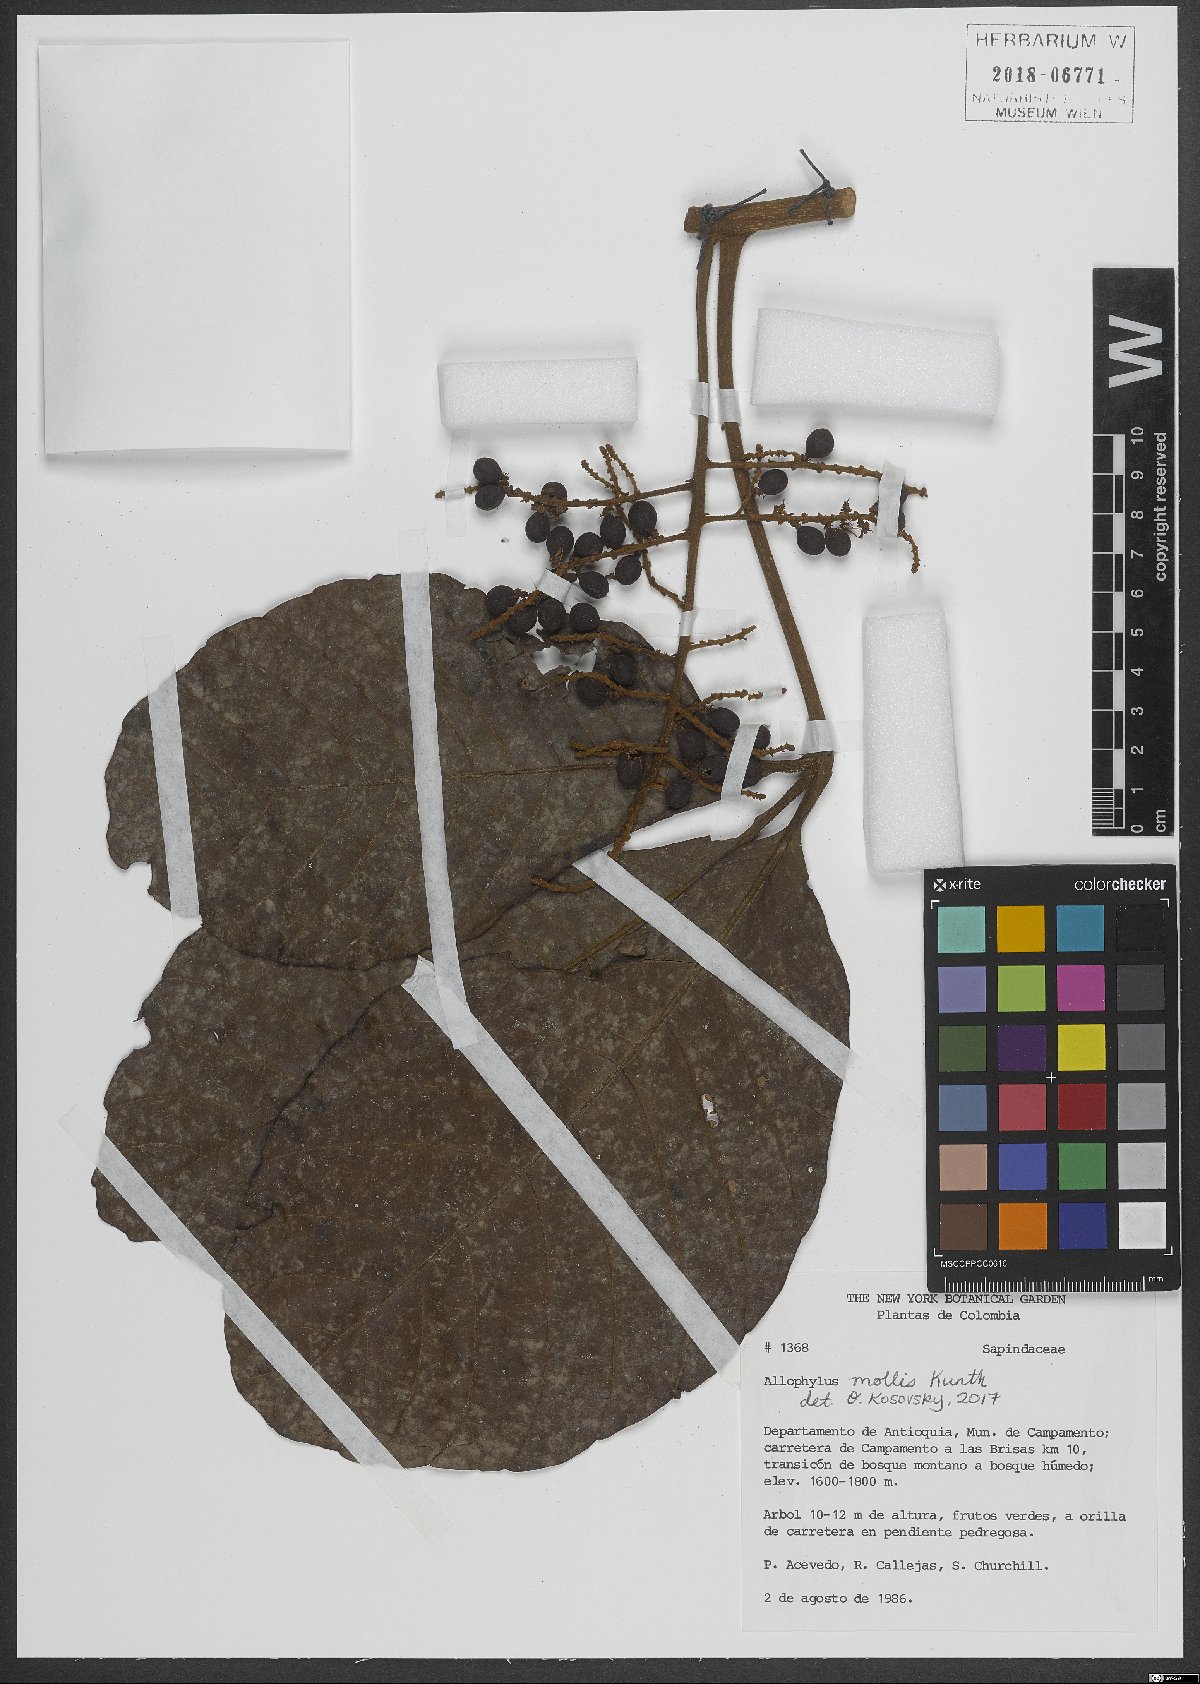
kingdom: Plantae
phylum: Tracheophyta
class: Magnoliopsida
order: Sapindales
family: Sapindaceae
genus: Allophylus
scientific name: Allophylus myrianthus
